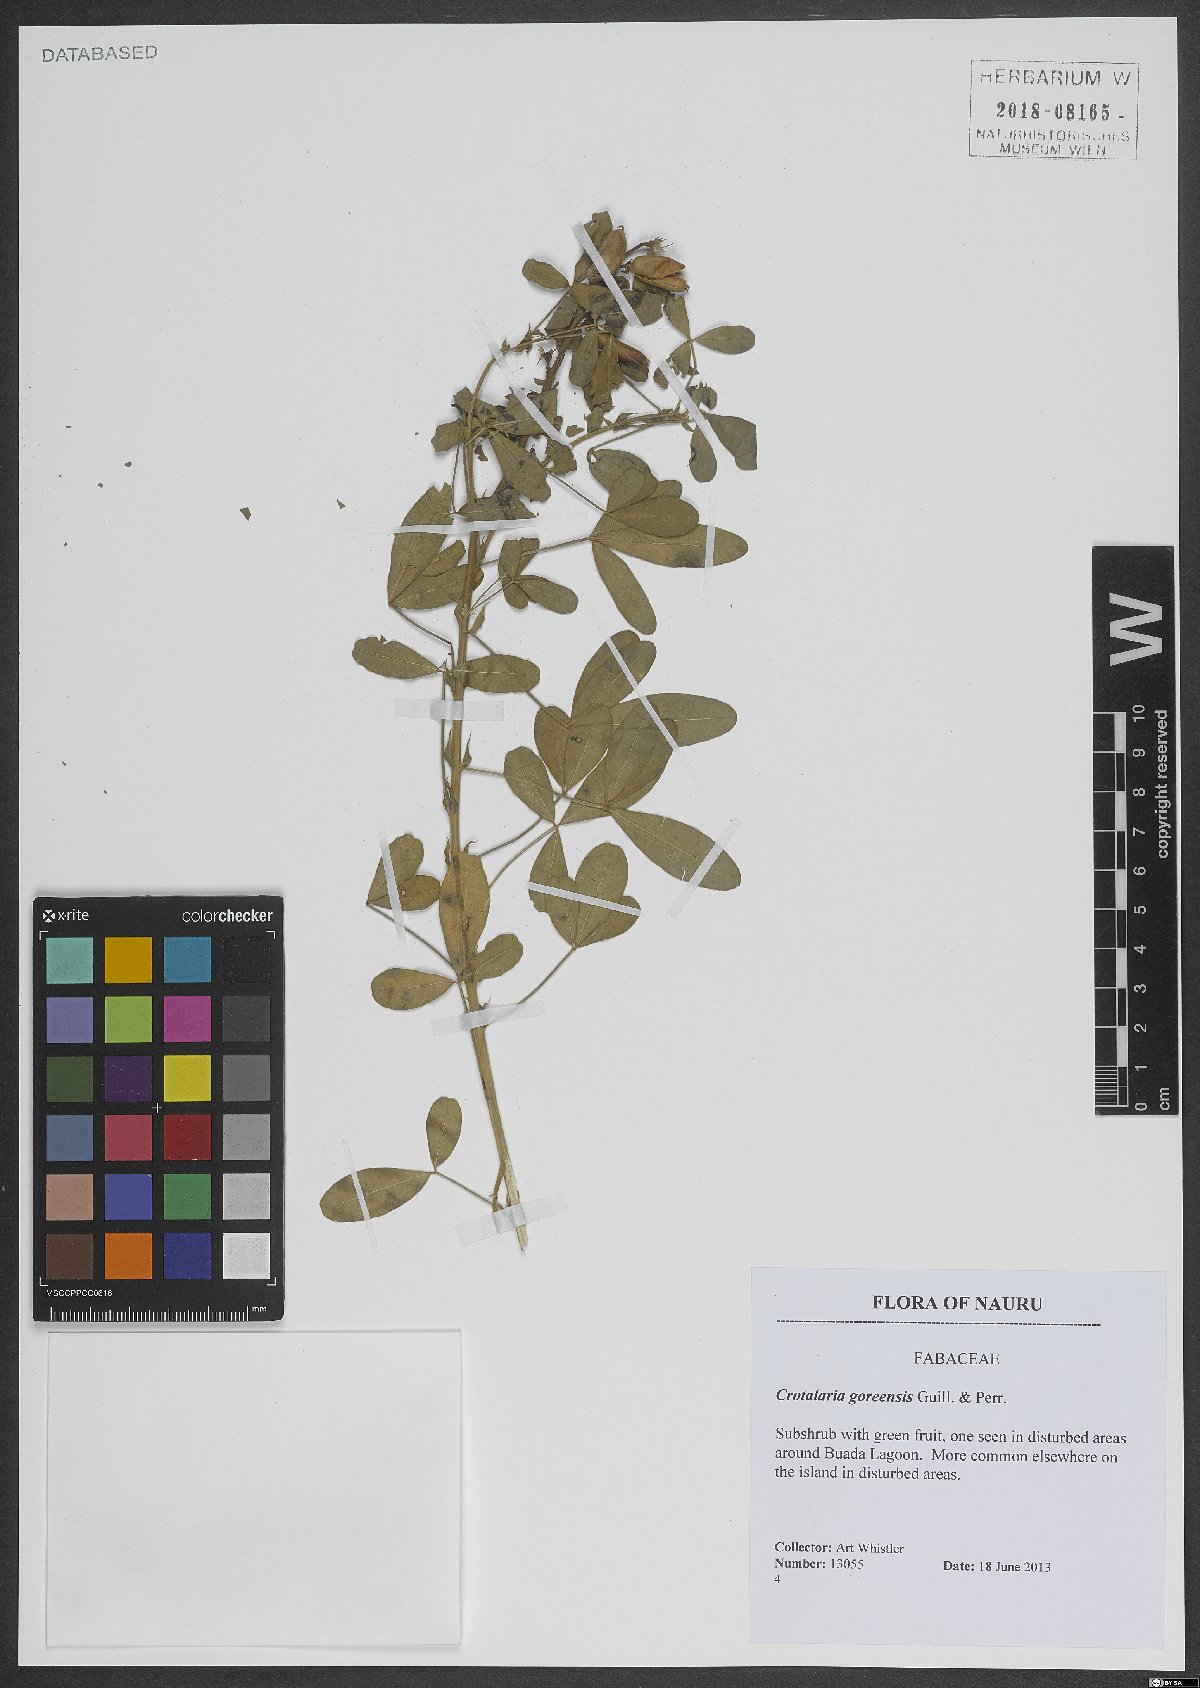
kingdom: Plantae
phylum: Tracheophyta
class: Magnoliopsida
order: Fabales
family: Fabaceae
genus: Crotalaria
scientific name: Crotalaria goreensis
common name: Gambia-pea
